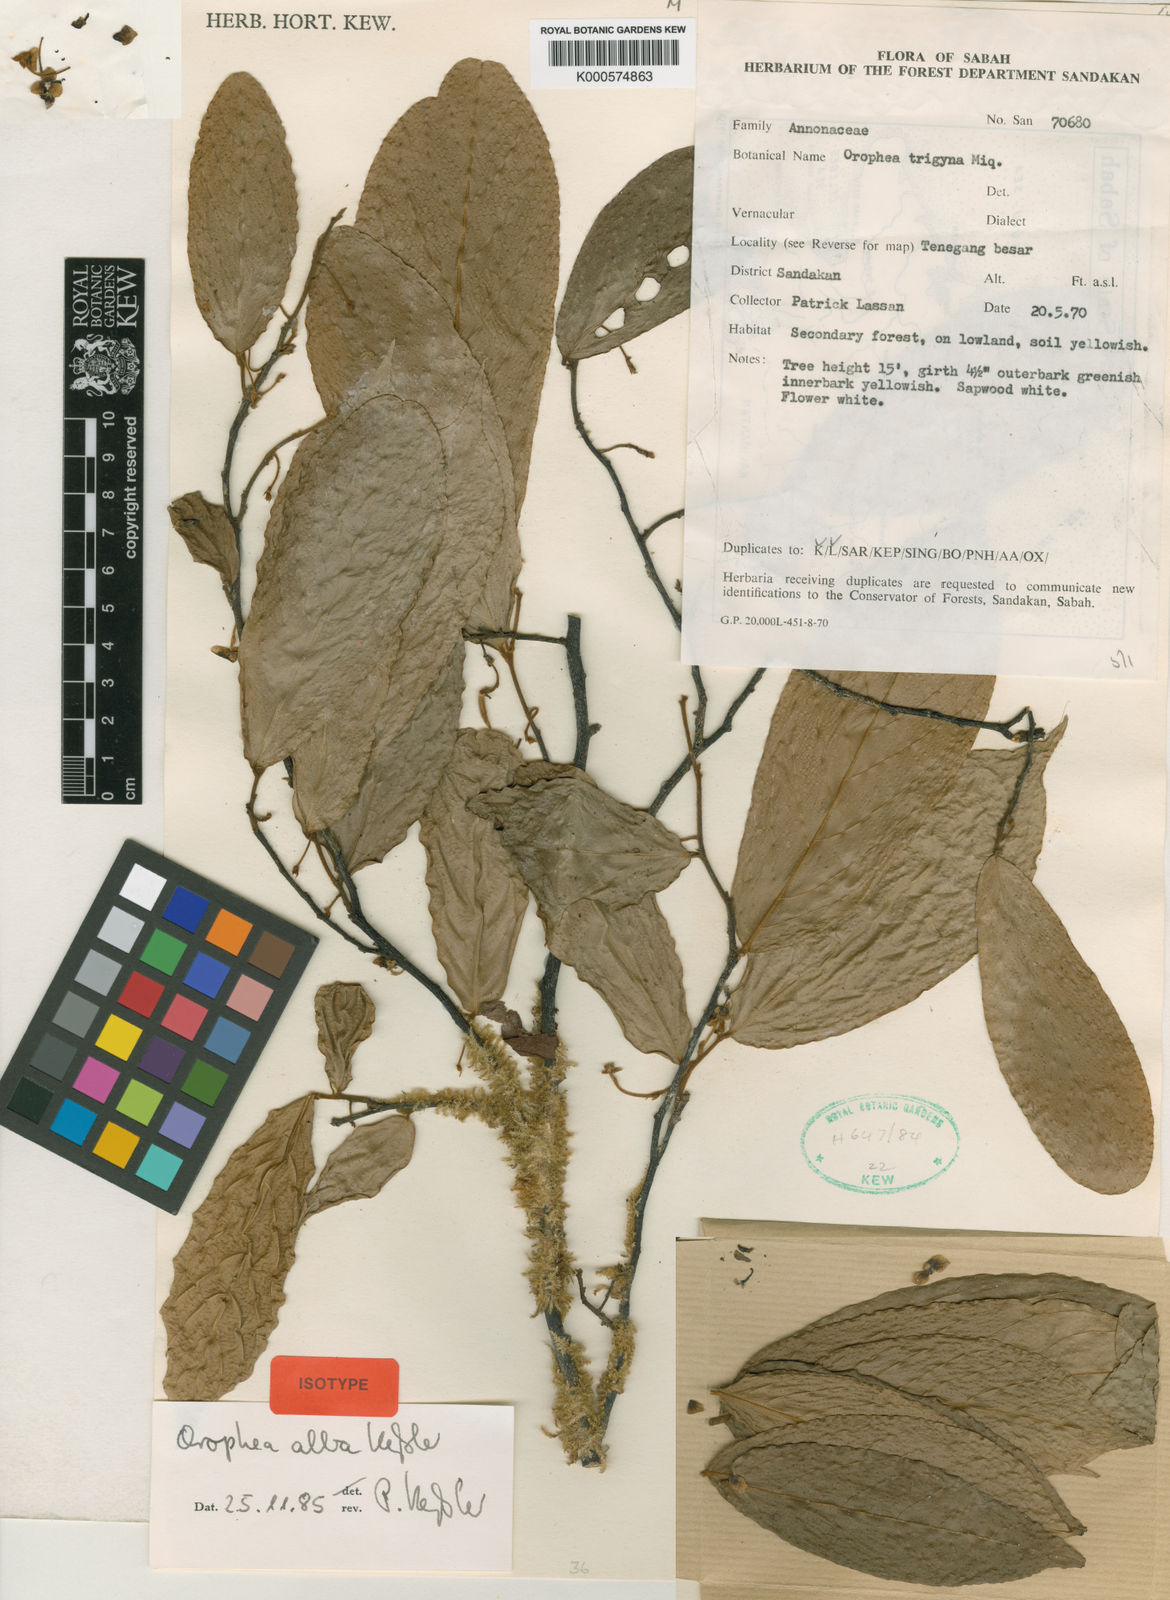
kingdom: Plantae
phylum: Tracheophyta
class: Magnoliopsida
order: Magnoliales
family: Annonaceae
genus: Orophea
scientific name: Orophea alba
